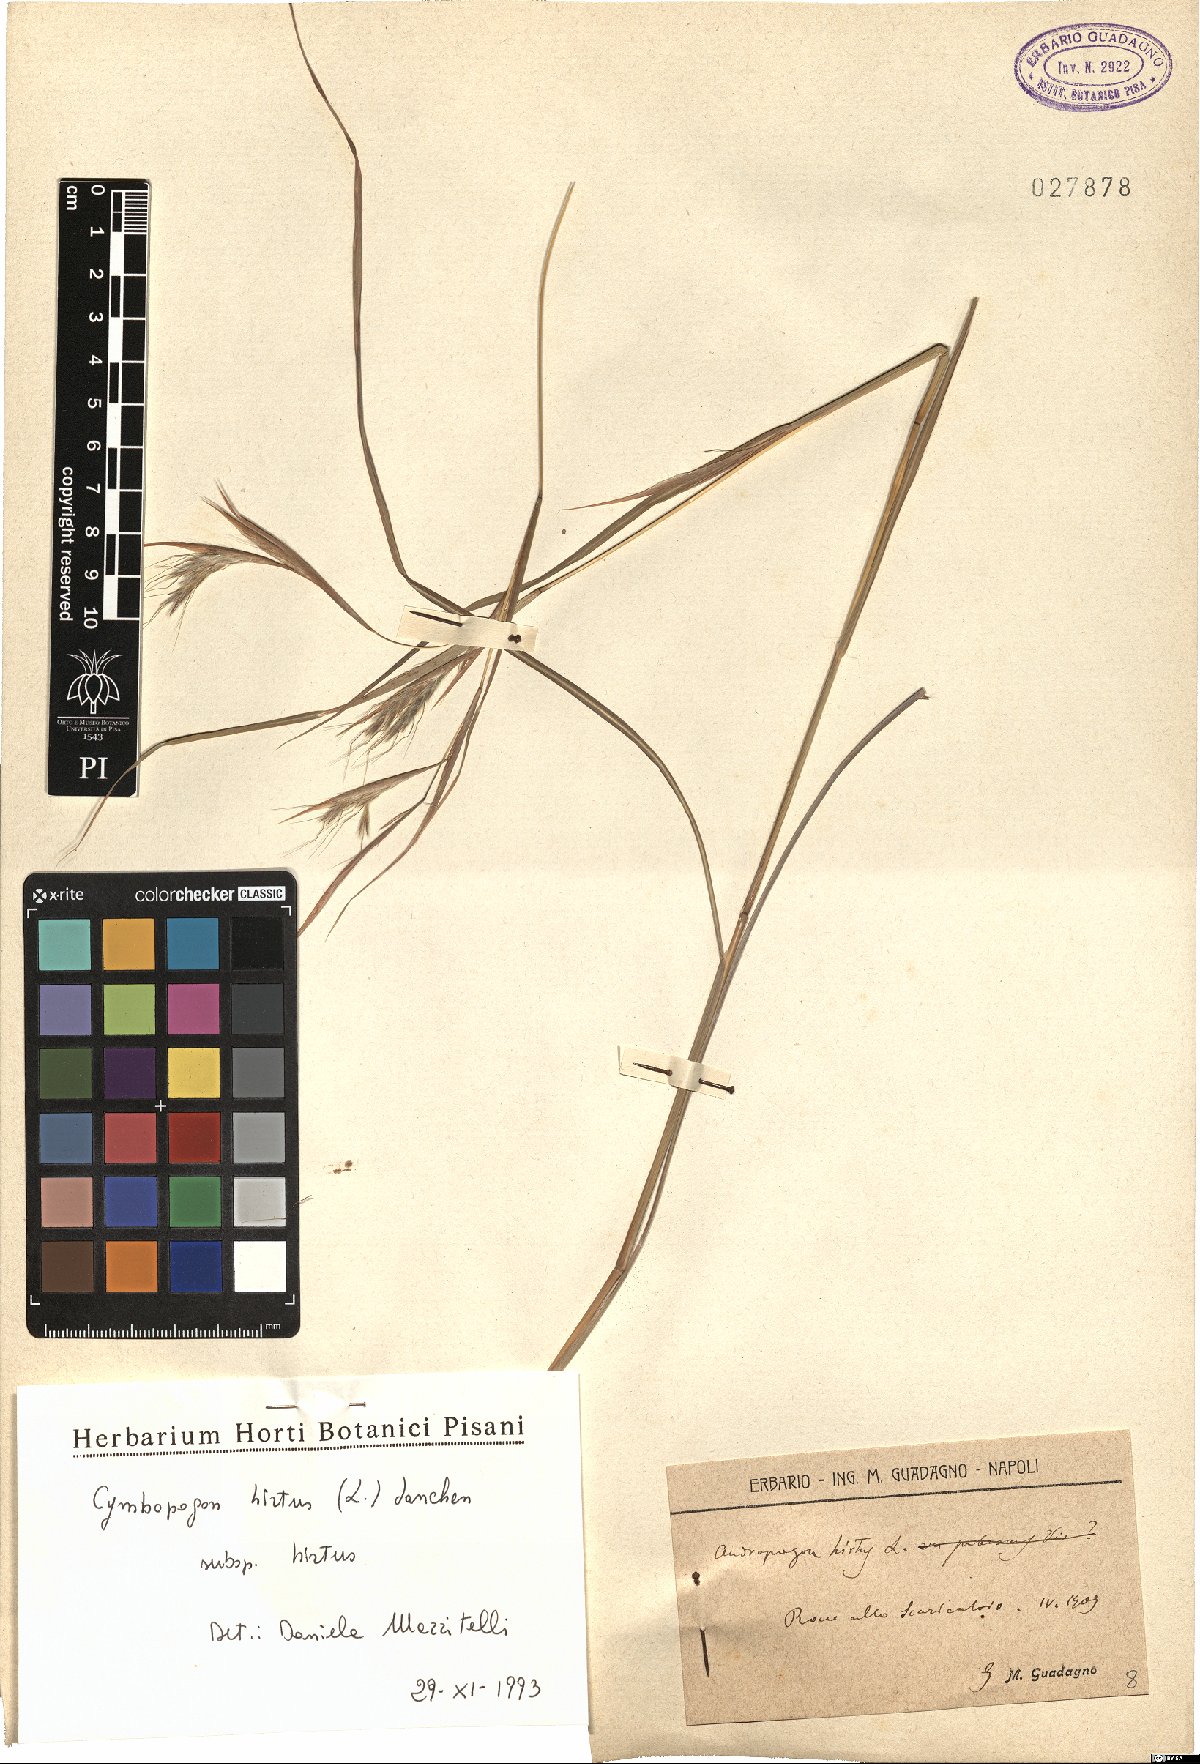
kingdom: Plantae
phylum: Tracheophyta
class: Liliopsida
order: Poales
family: Poaceae
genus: Cymbopogon
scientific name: Cymbopogon hirtus
